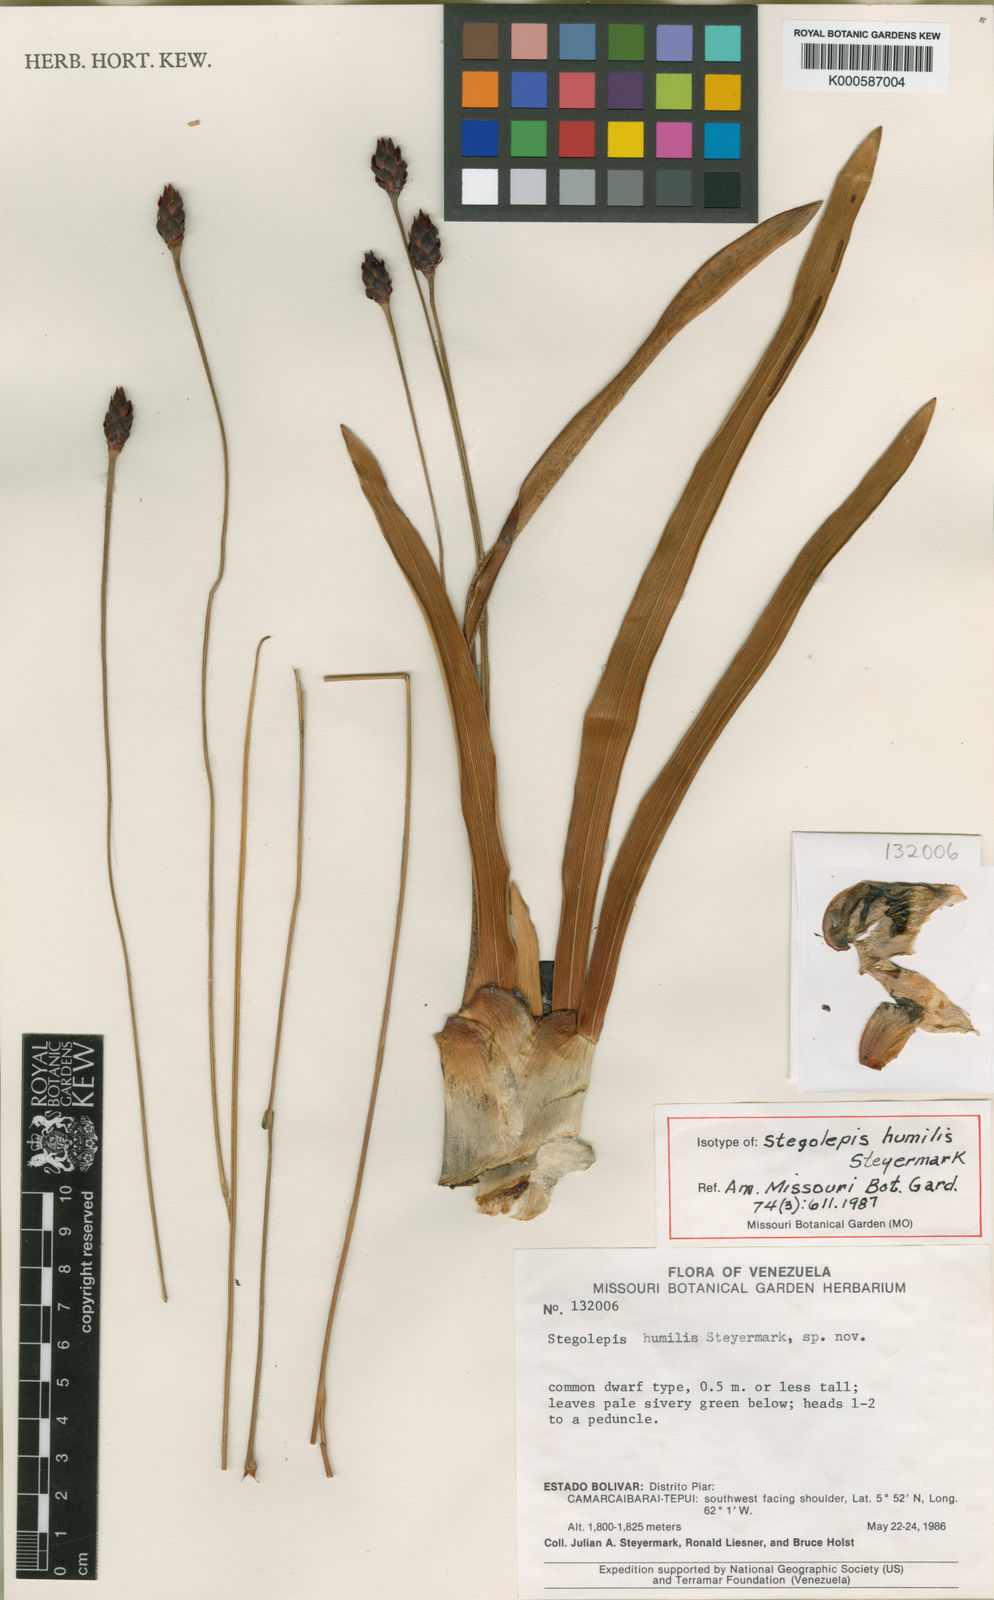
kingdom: Plantae
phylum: Tracheophyta
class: Liliopsida
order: Poales
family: Rapateaceae
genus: Stegolepis
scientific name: Stegolepis humilis
